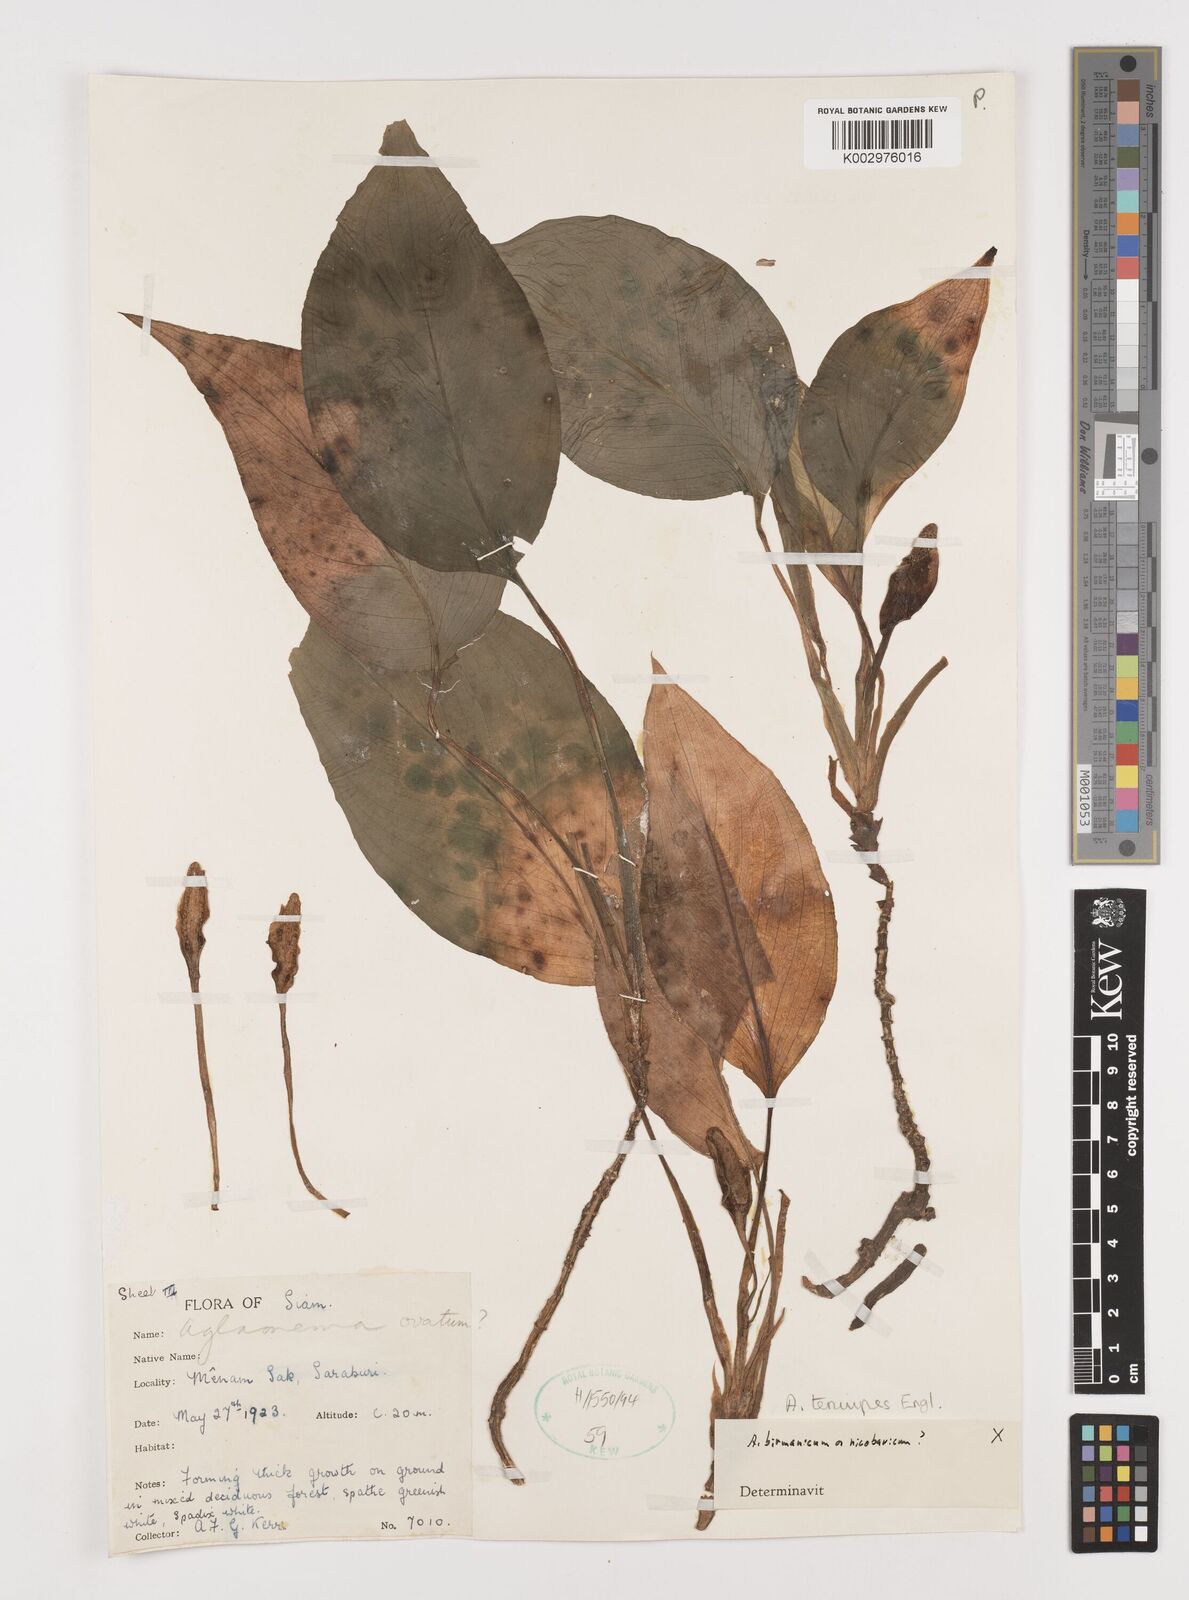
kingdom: Plantae
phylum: Tracheophyta
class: Liliopsida
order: Alismatales
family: Araceae
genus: Aglaonema
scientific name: Aglaonema simplex
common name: Malayan-sword
